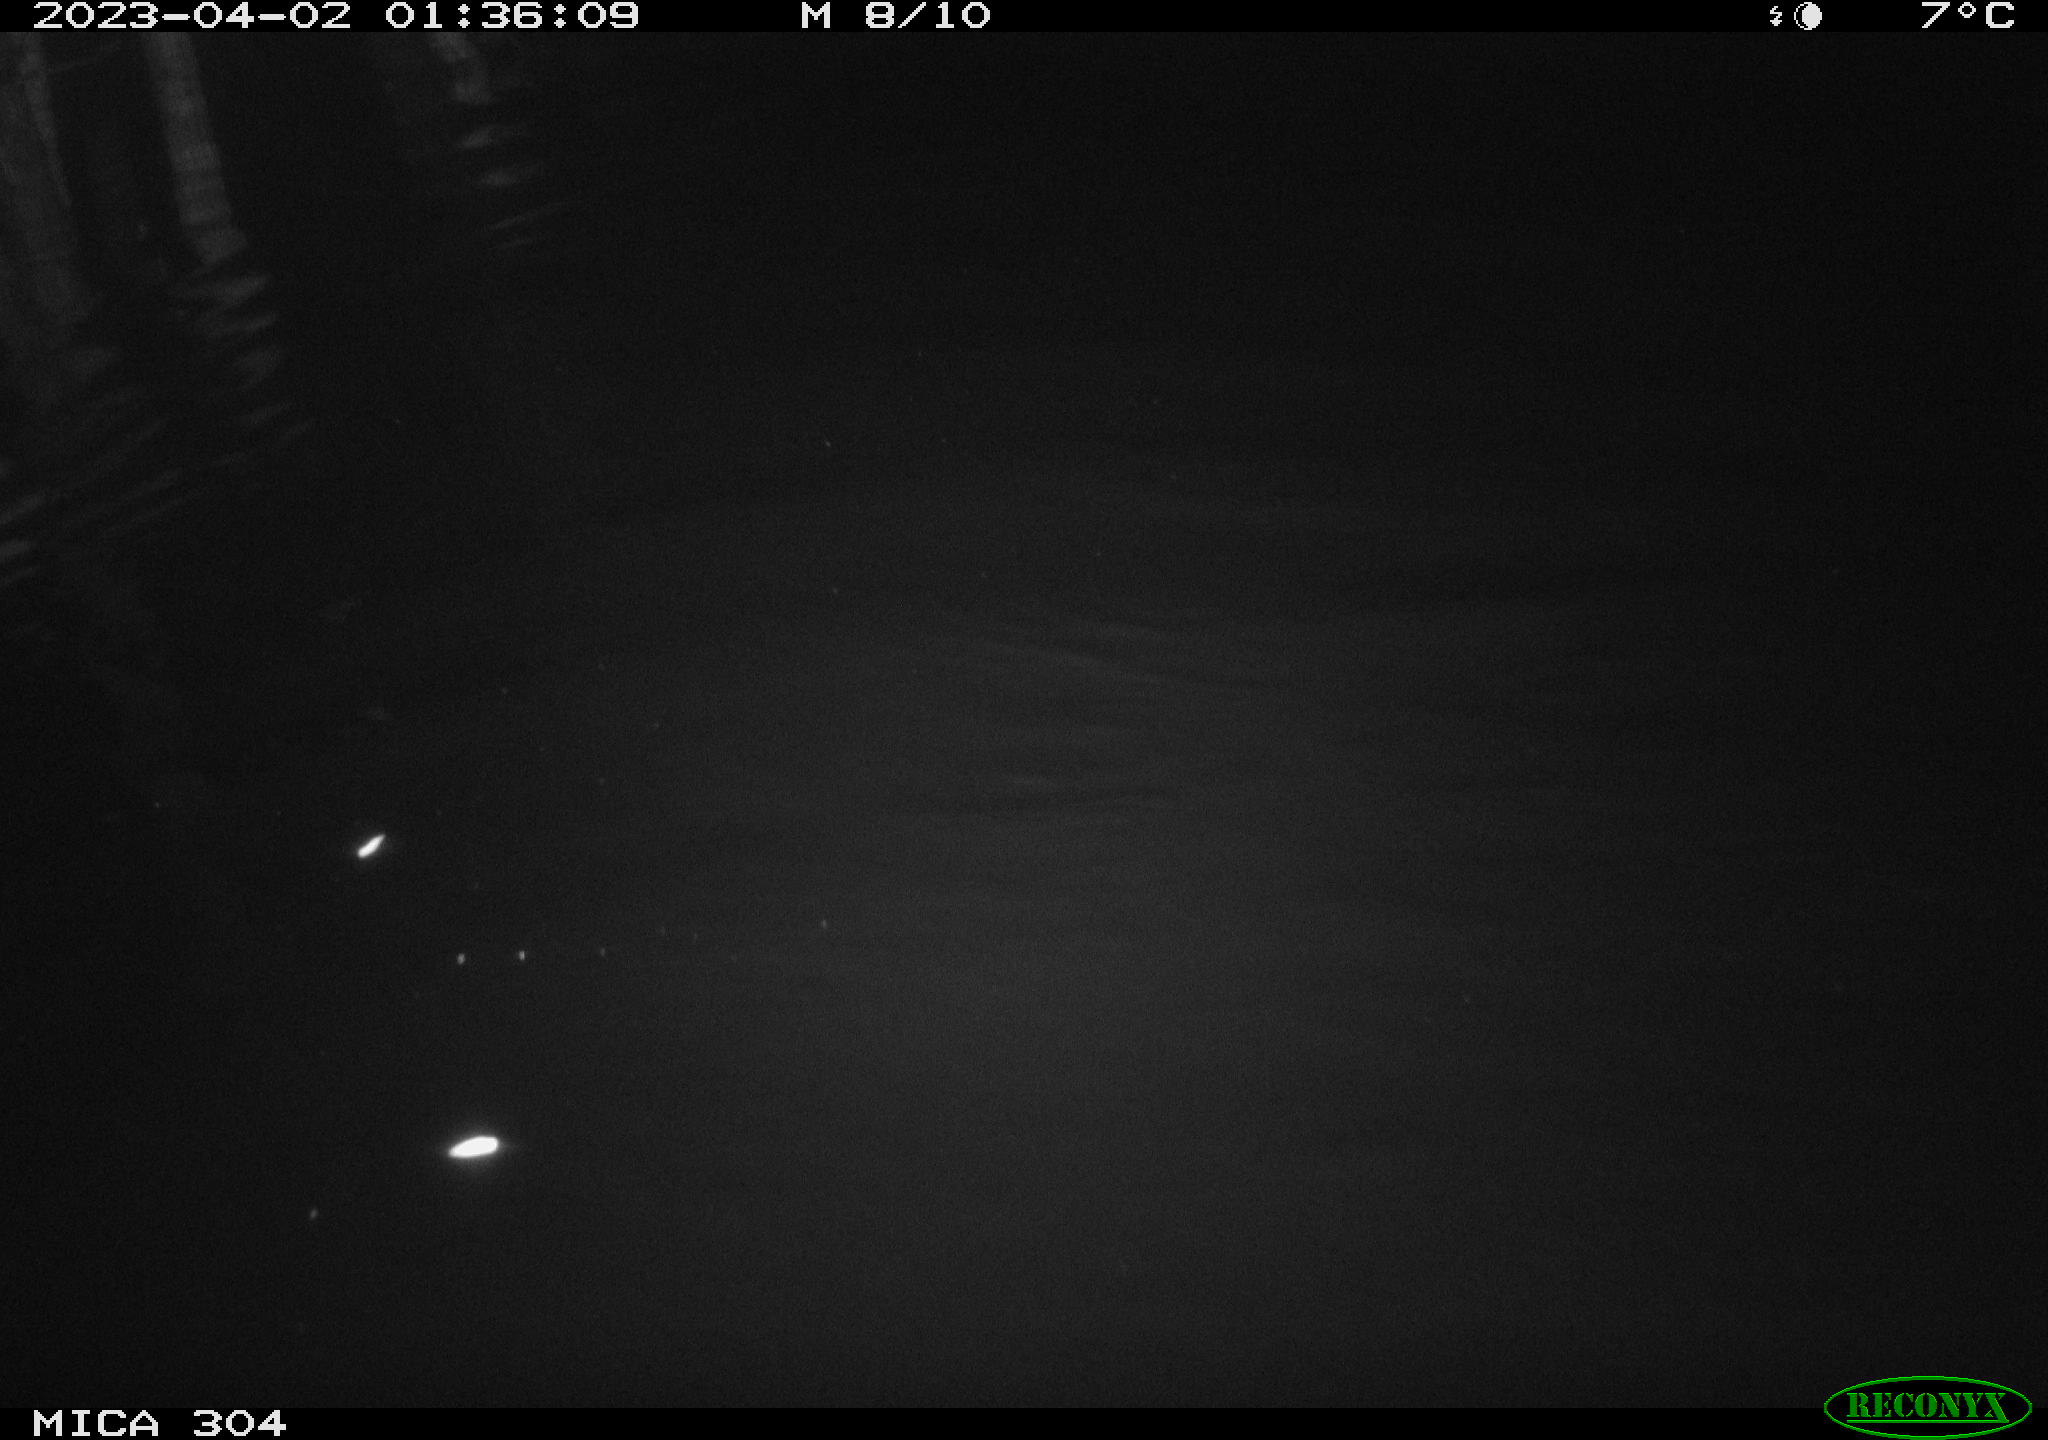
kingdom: Animalia
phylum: Chordata
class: Aves
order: Anseriformes
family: Anatidae
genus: Anas
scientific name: Anas
